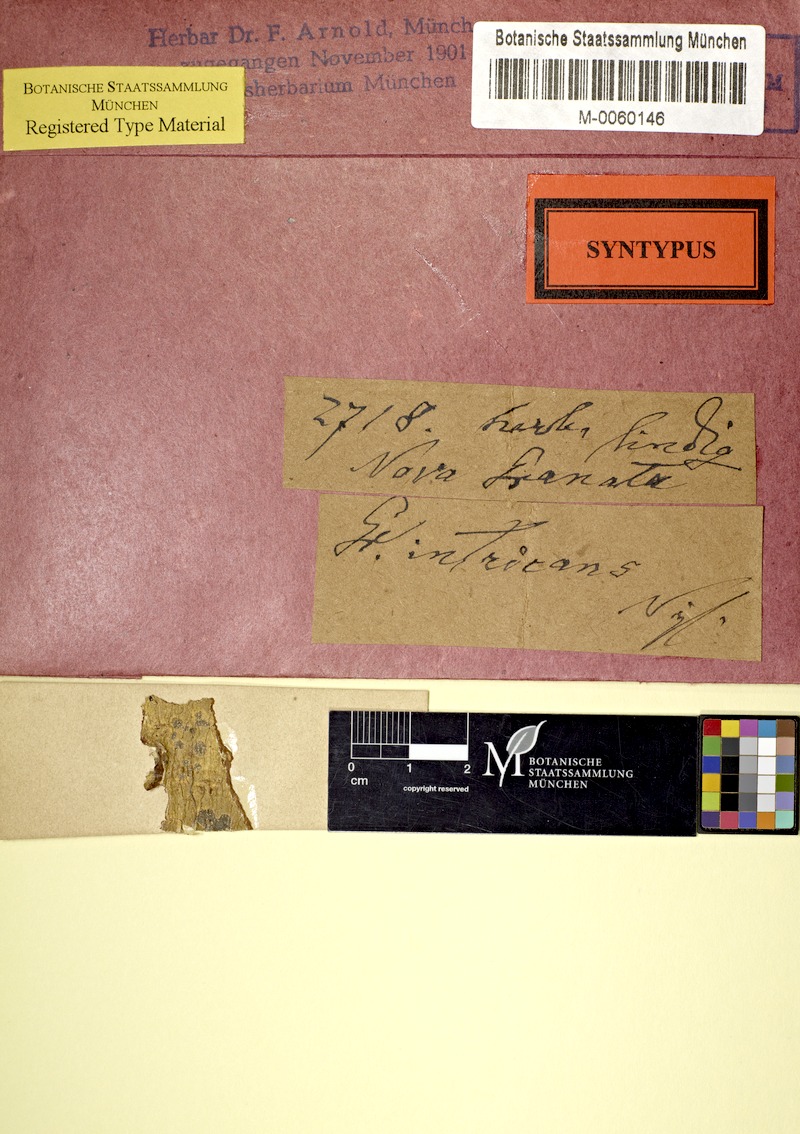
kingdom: Fungi
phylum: Ascomycota
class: Lecanoromycetes
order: Ostropales
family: Graphidaceae
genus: Sarcographa
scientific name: Sarcographa intricans
